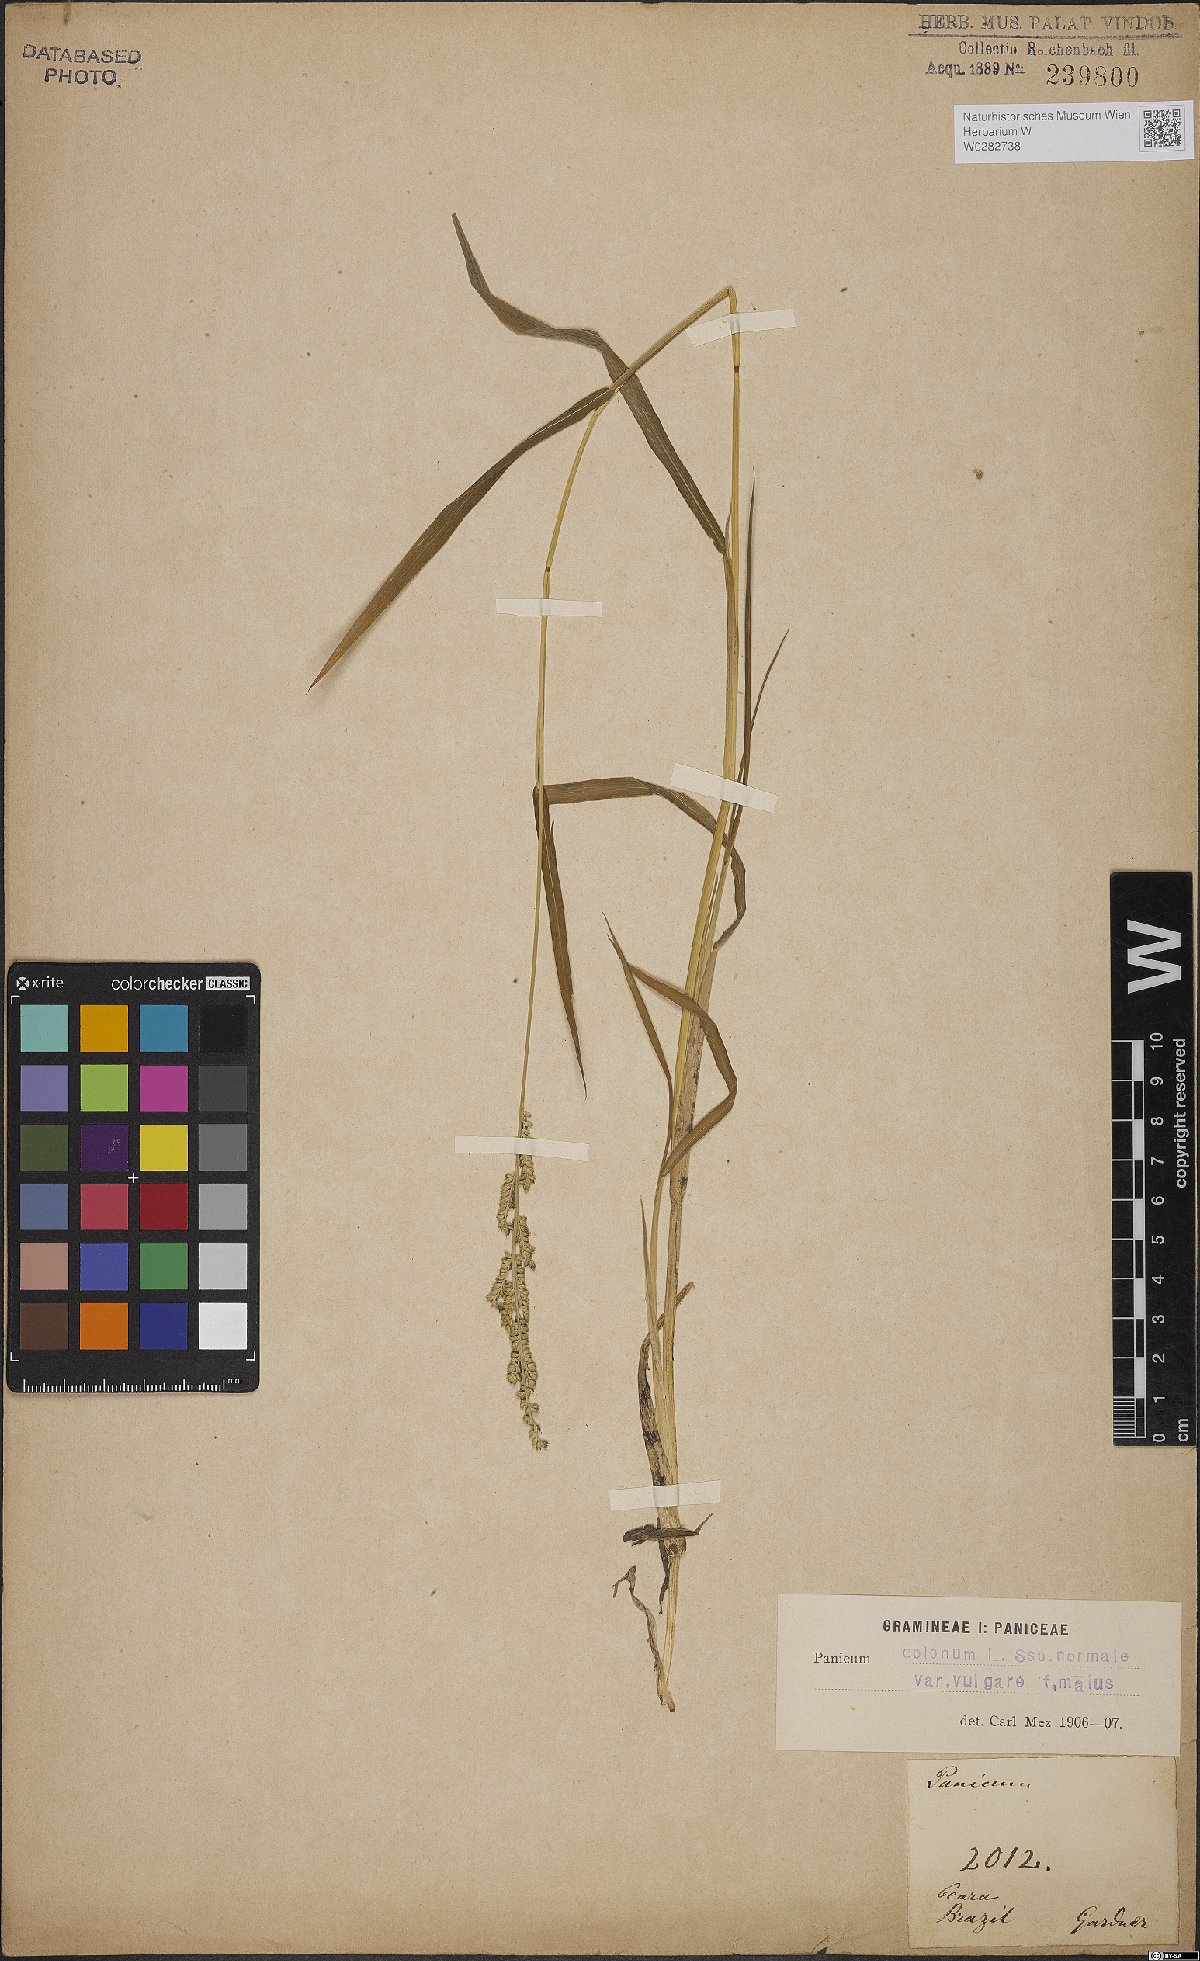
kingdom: Plantae
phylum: Tracheophyta
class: Liliopsida
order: Poales
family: Poaceae
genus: Echinochloa
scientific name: Echinochloa colonum
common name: Jungle rice
